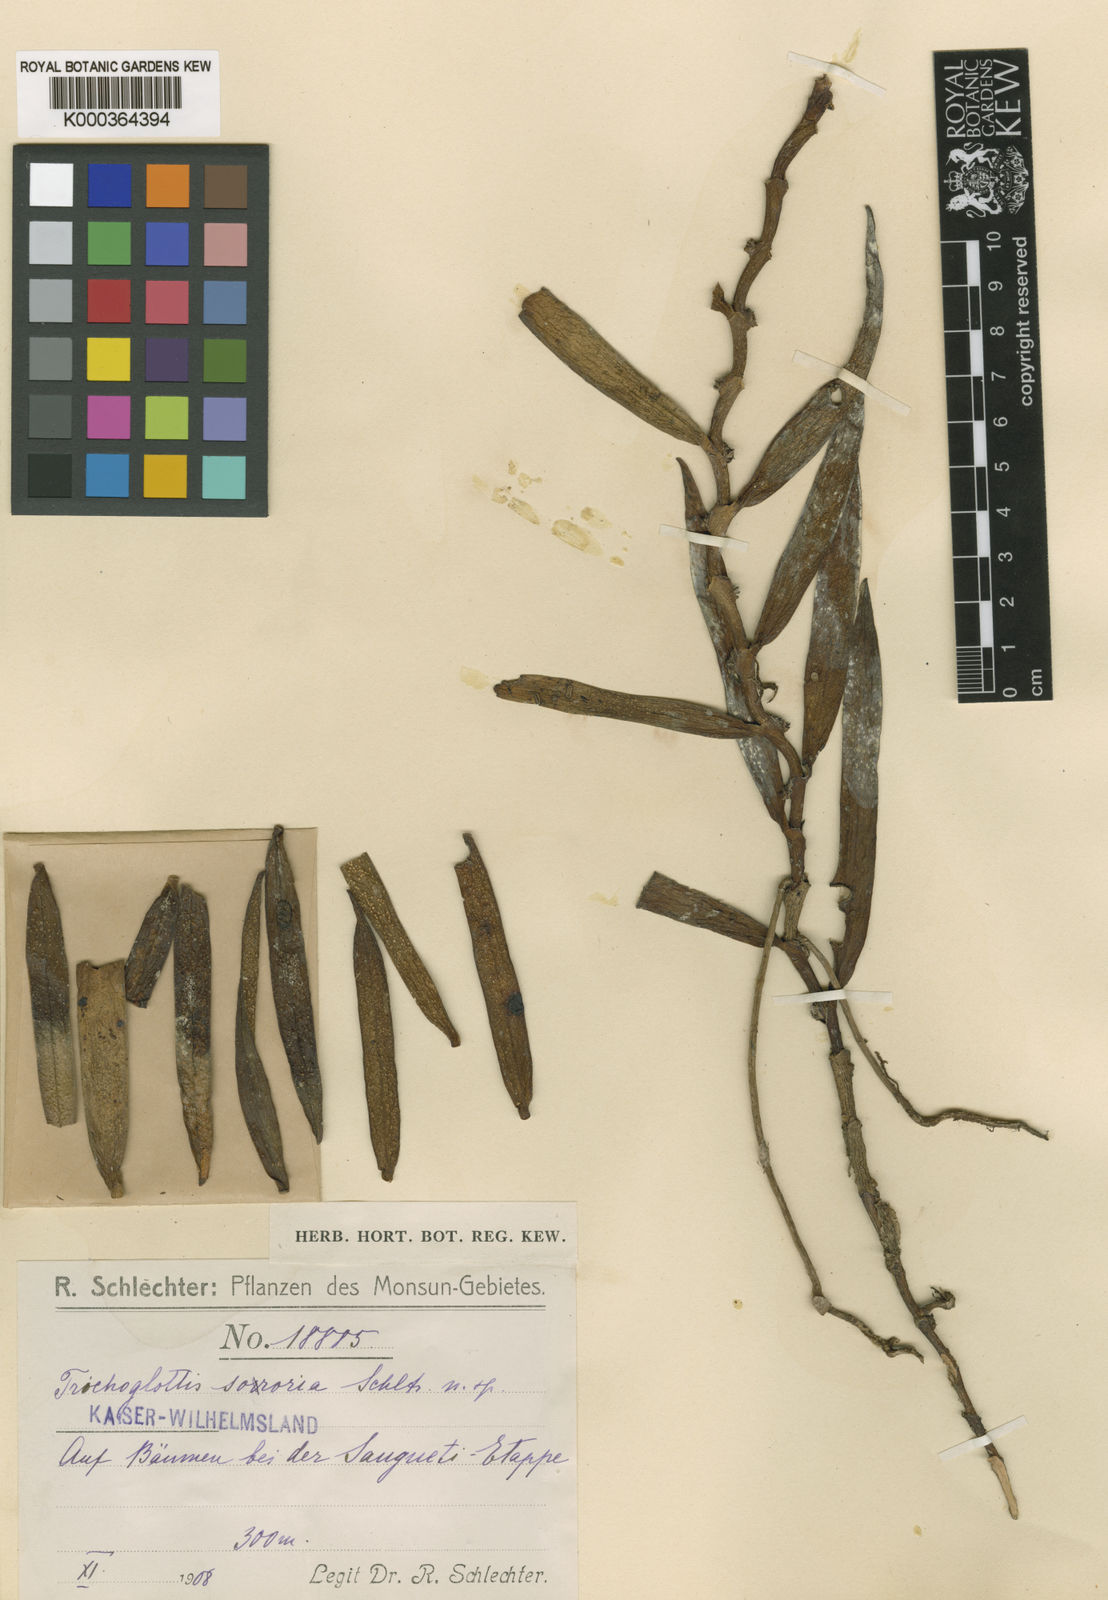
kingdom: Plantae
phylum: Tracheophyta
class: Liliopsida
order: Asparagales
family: Orchidaceae
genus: Trichoglottis
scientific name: Trichoglottis
